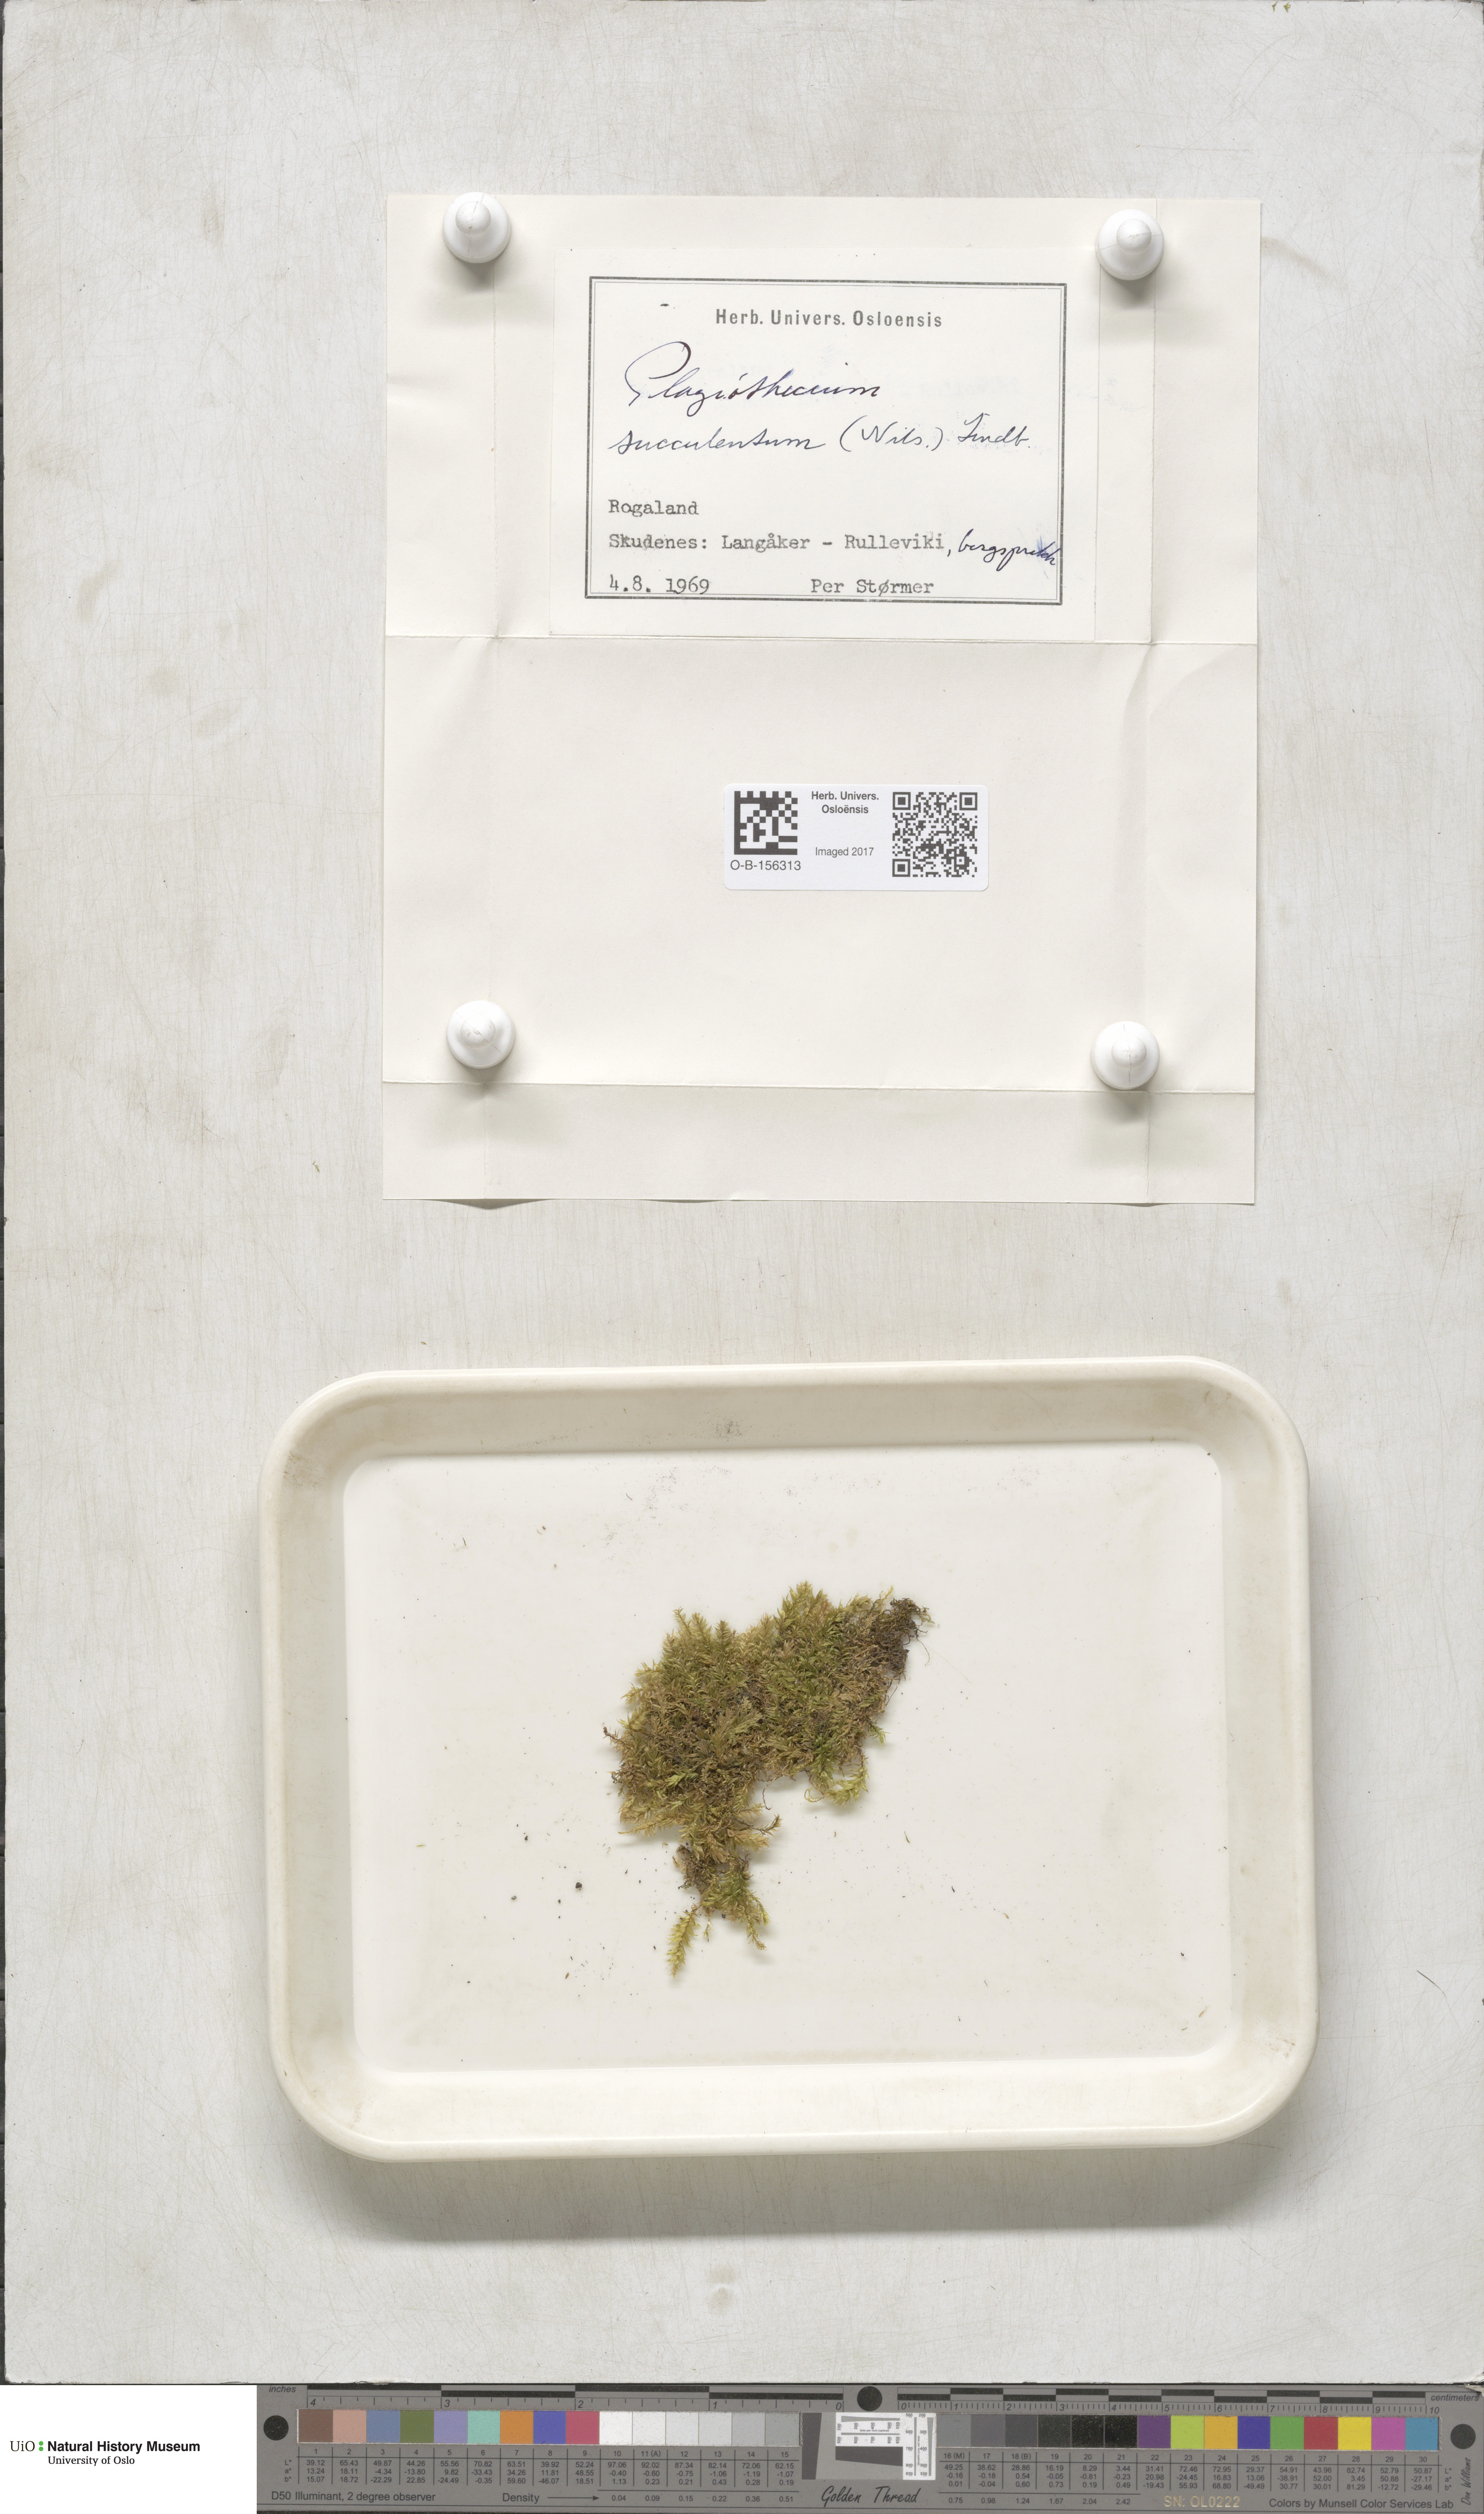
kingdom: Plantae
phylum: Bryophyta
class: Bryopsida
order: Hypnales
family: Plagiotheciaceae
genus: Plagiothecium
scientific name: Plagiothecium nemorale
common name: Woodsy silk-moss
